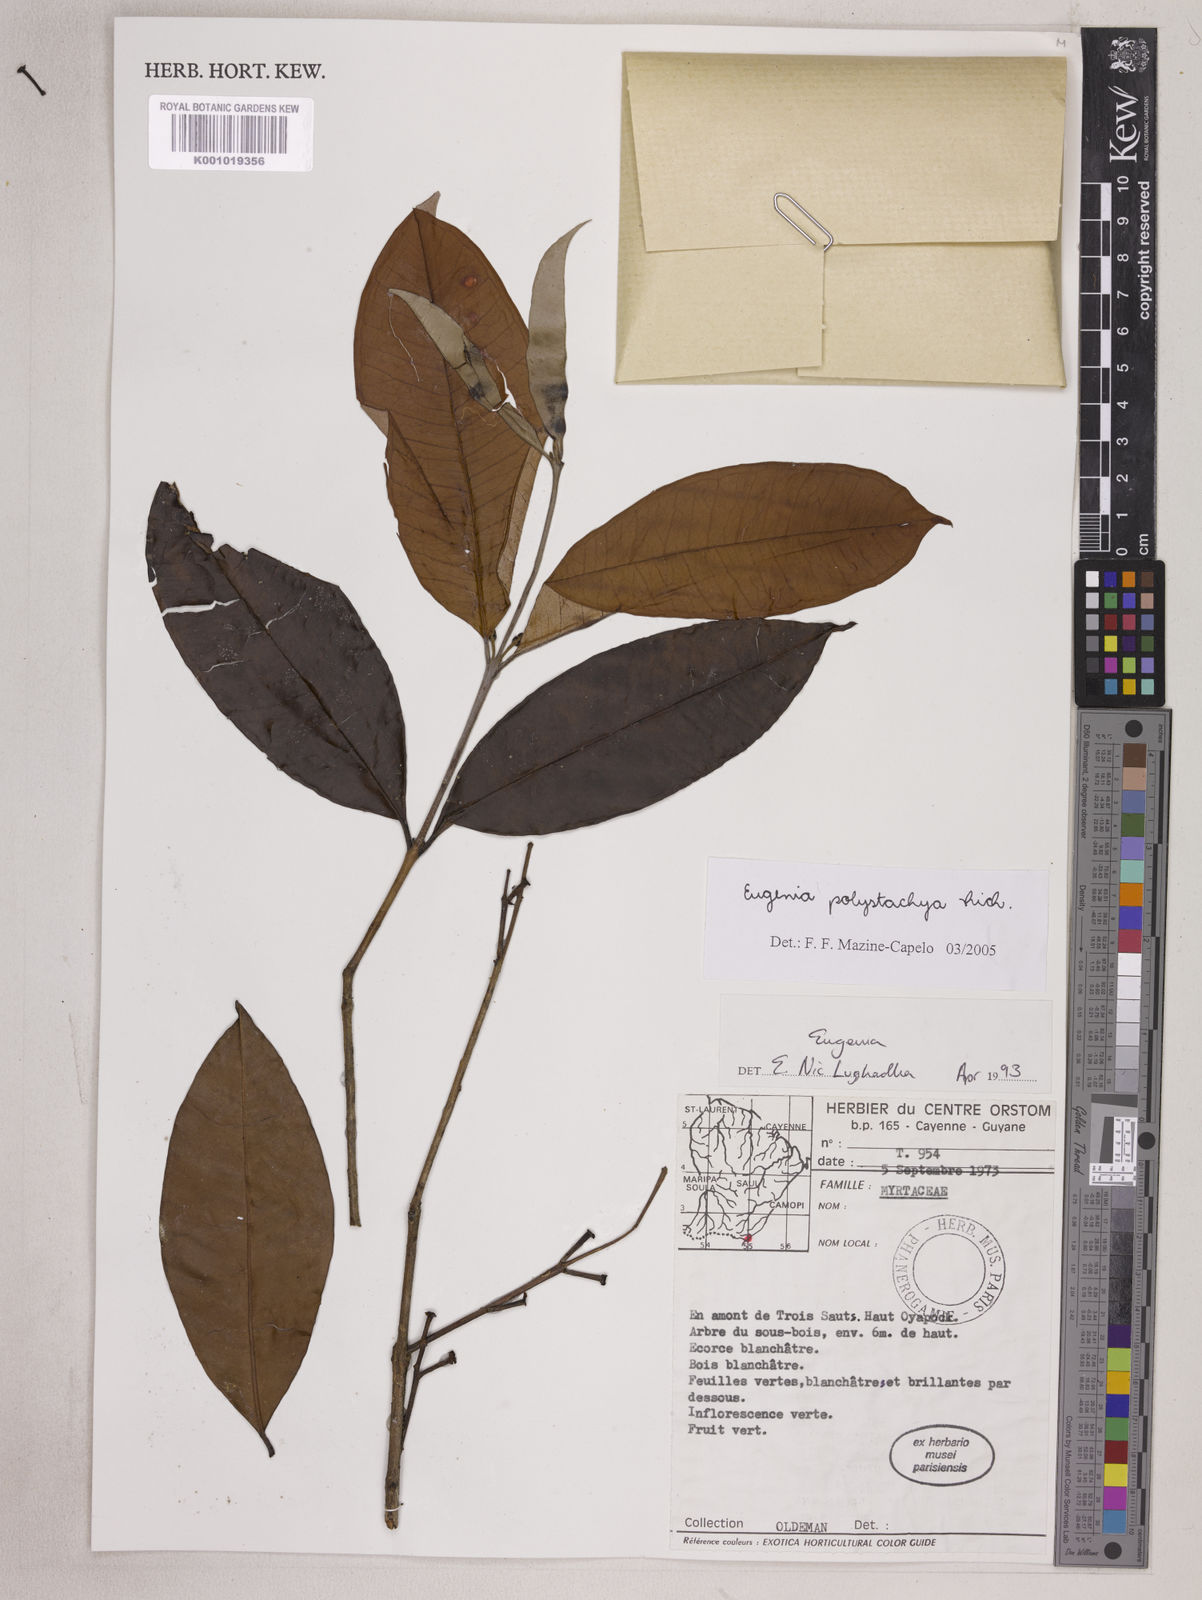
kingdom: Plantae
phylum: Tracheophyta
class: Magnoliopsida
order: Myrtales
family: Myrtaceae
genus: Eugenia
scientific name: Eugenia polystachya
